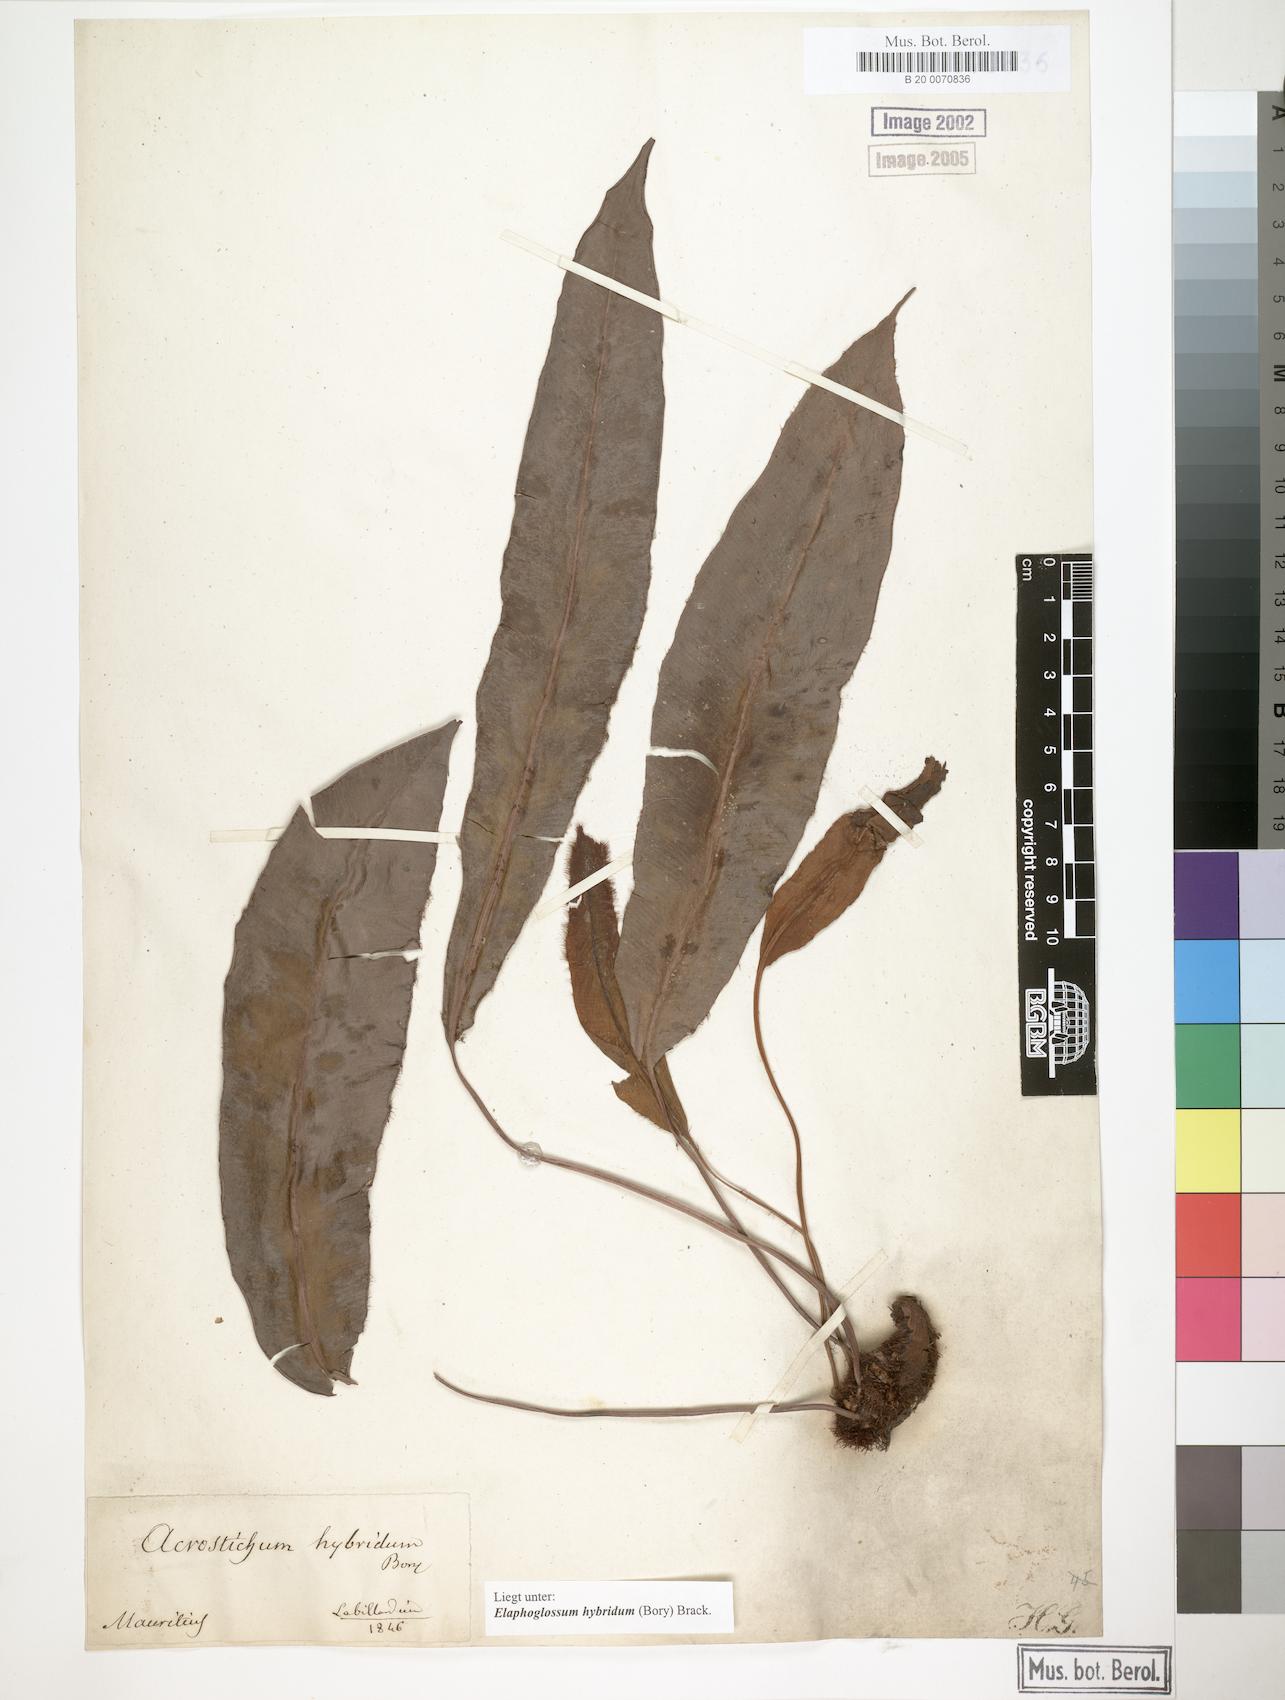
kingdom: Plantae
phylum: Tracheophyta
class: Polypodiopsida
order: Polypodiales
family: Dryopteridaceae
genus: Elaphoglossum
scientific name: Elaphoglossum hybridum
